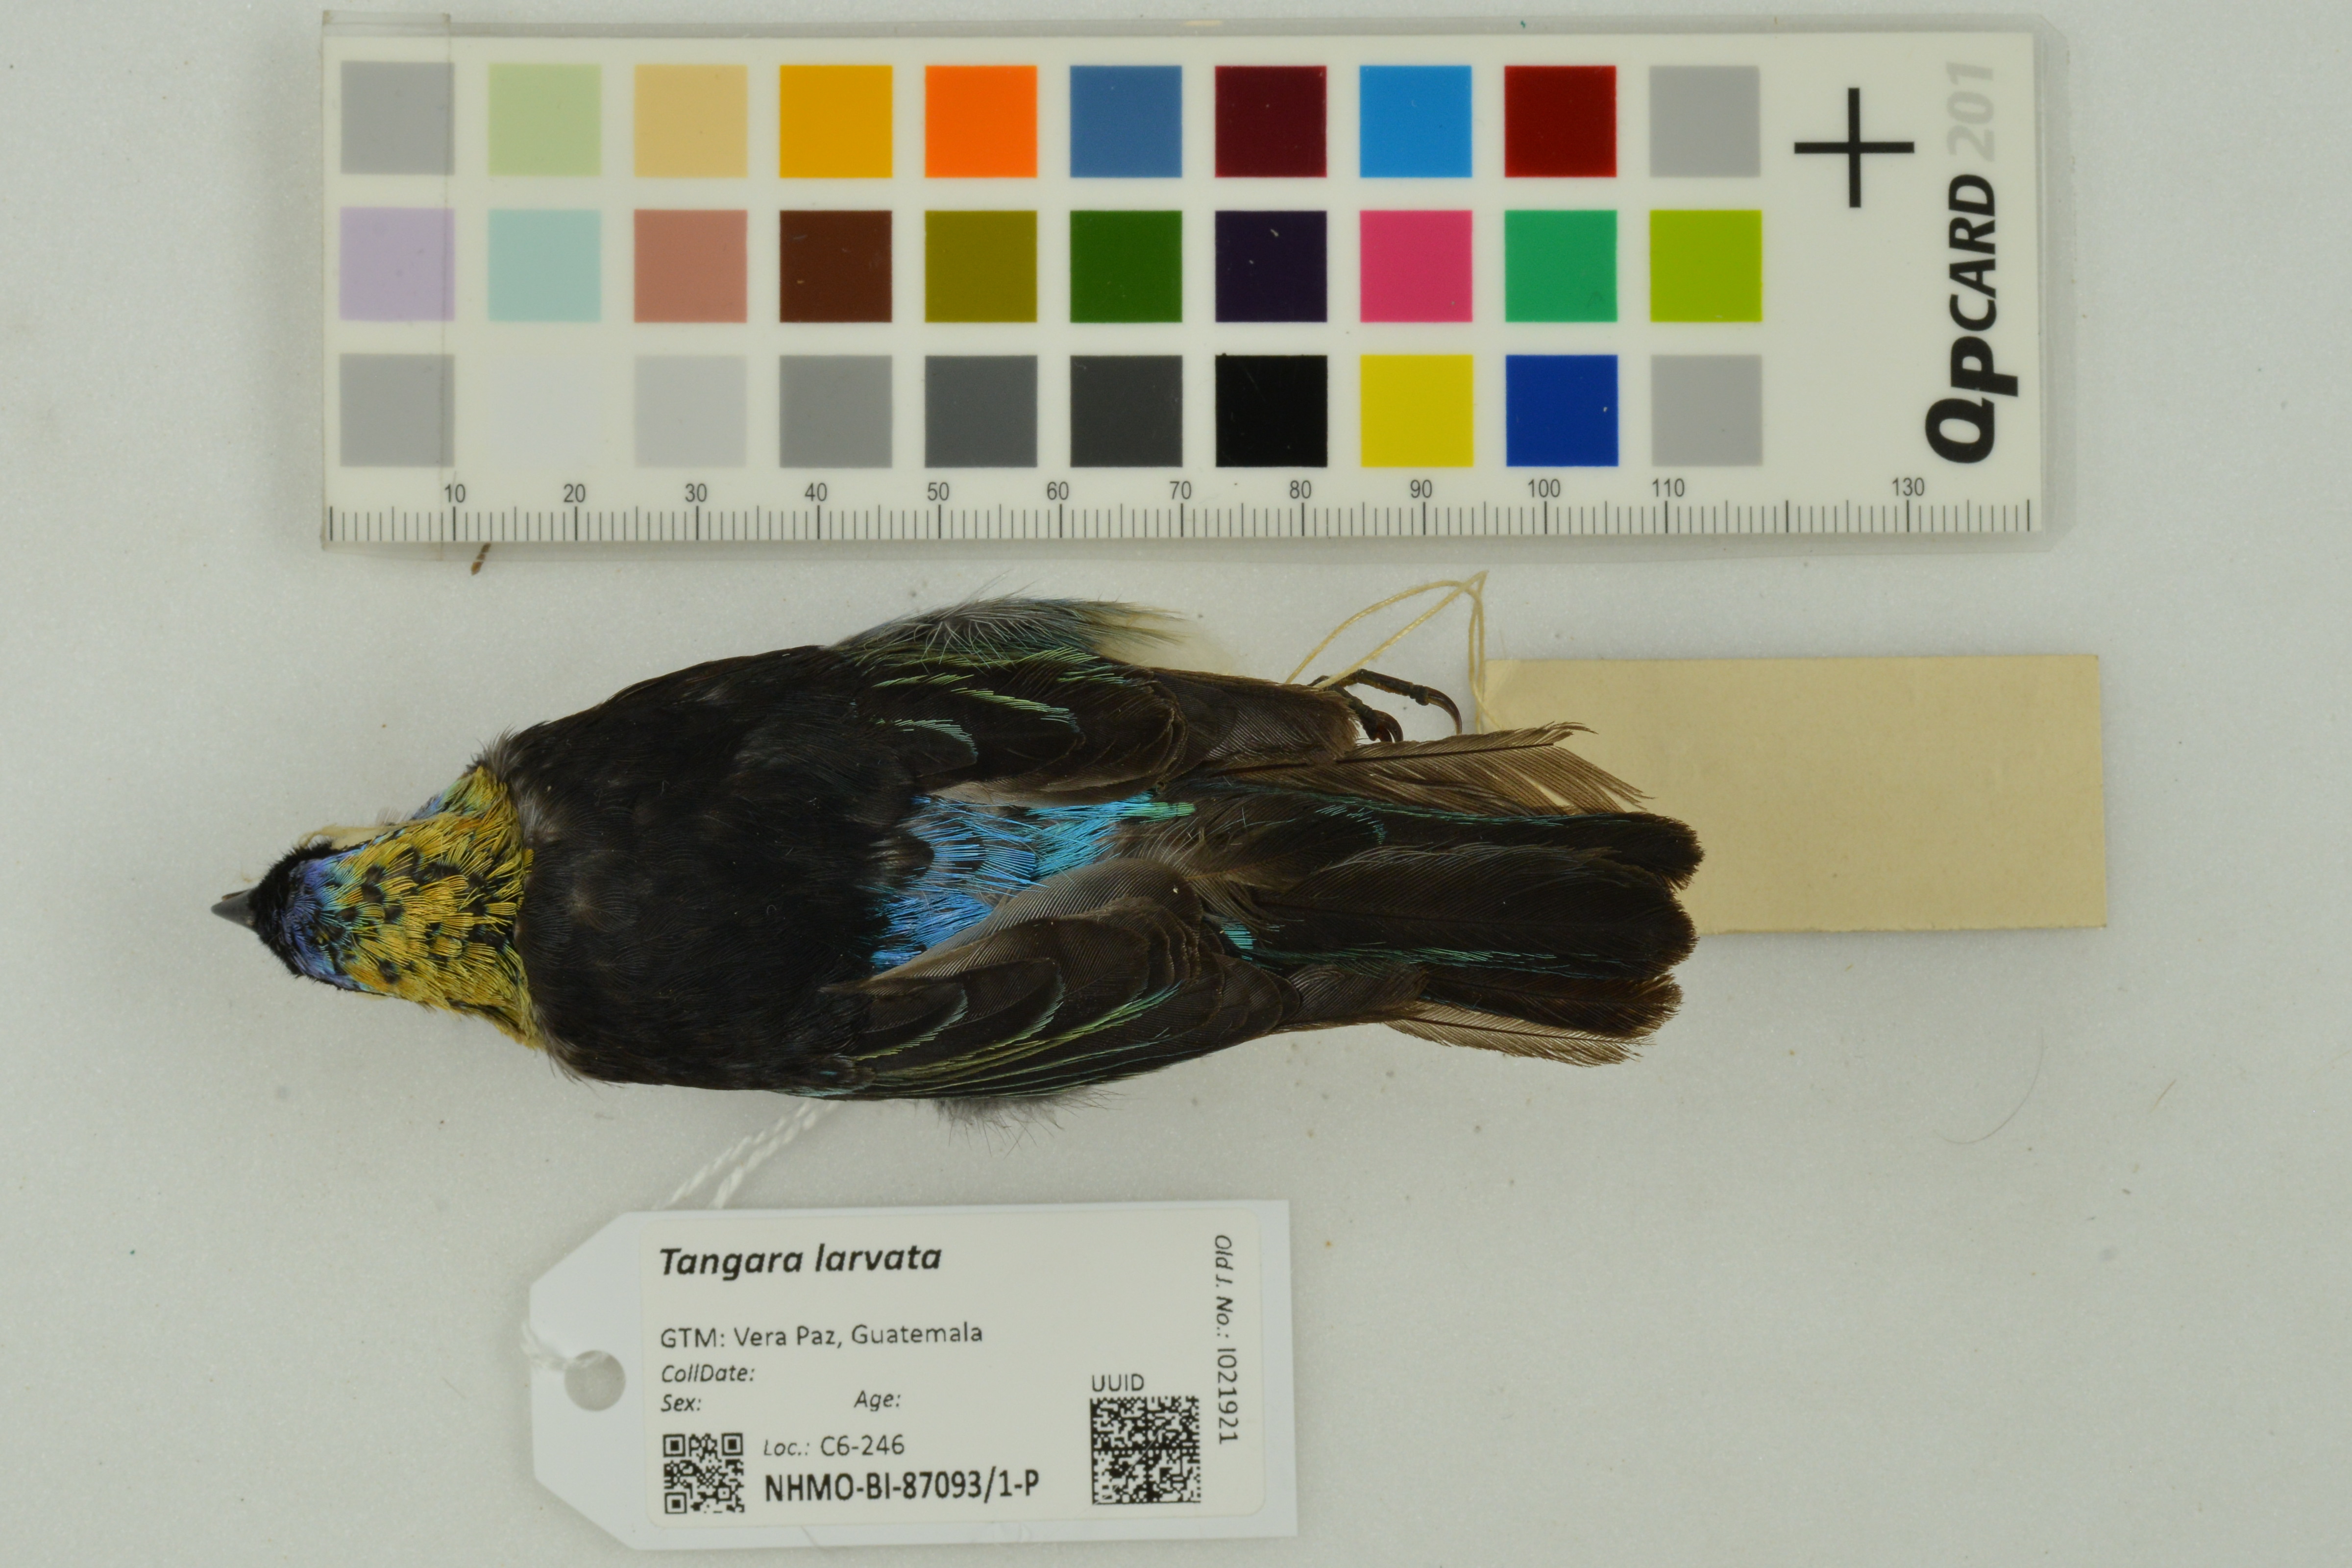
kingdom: Animalia
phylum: Chordata
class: Aves
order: Passeriformes
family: Thraupidae
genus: Stilpnia
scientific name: Stilpnia larvata
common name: Golden-hooded tanager
